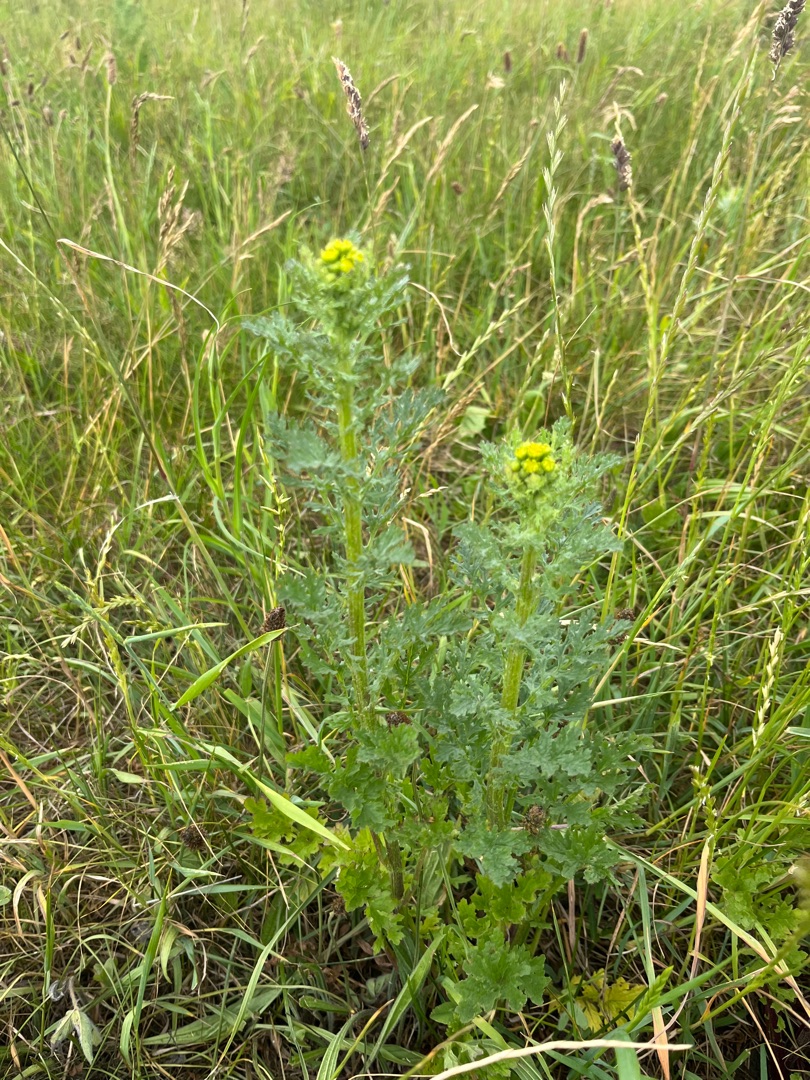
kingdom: Plantae
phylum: Tracheophyta
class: Magnoliopsida
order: Asterales
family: Asteraceae
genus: Jacobaea
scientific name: Jacobaea vulgaris
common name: Eng-brandbæger
